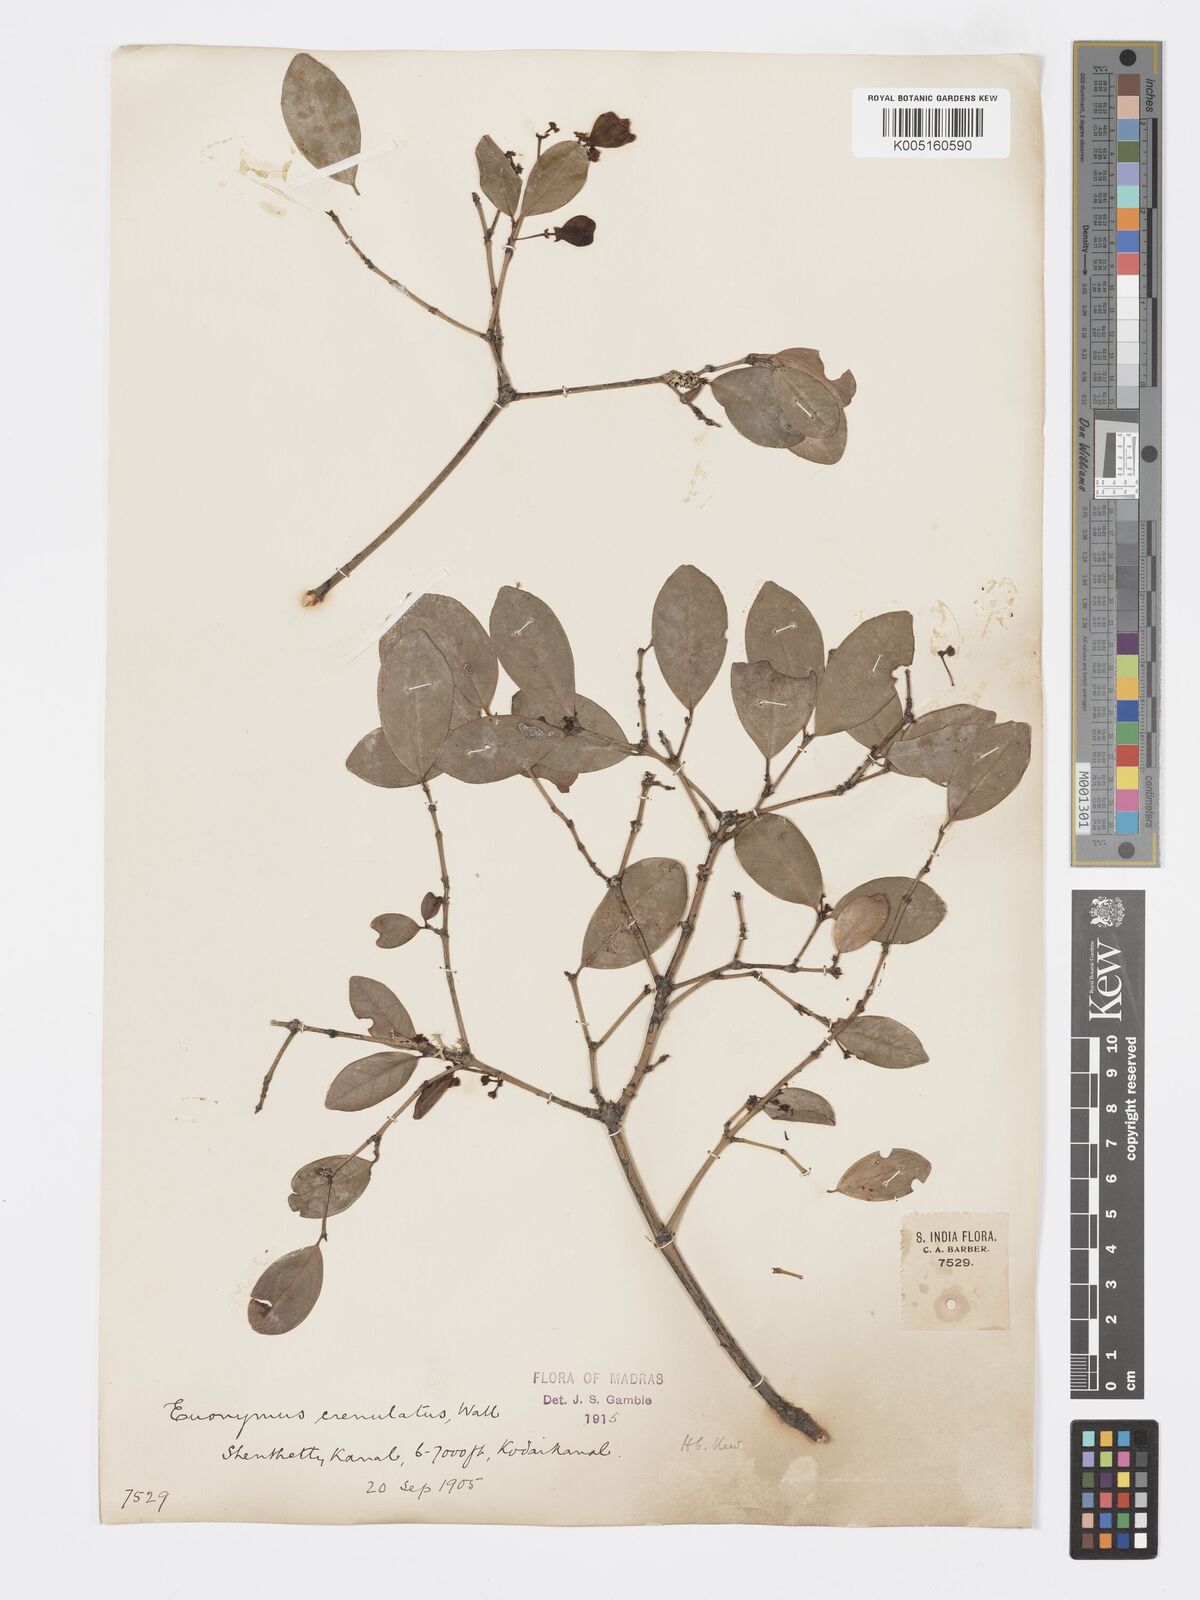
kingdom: Plantae
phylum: Tracheophyta
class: Magnoliopsida
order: Celastrales
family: Celastraceae
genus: Euonymus
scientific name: Euonymus crenulatus
